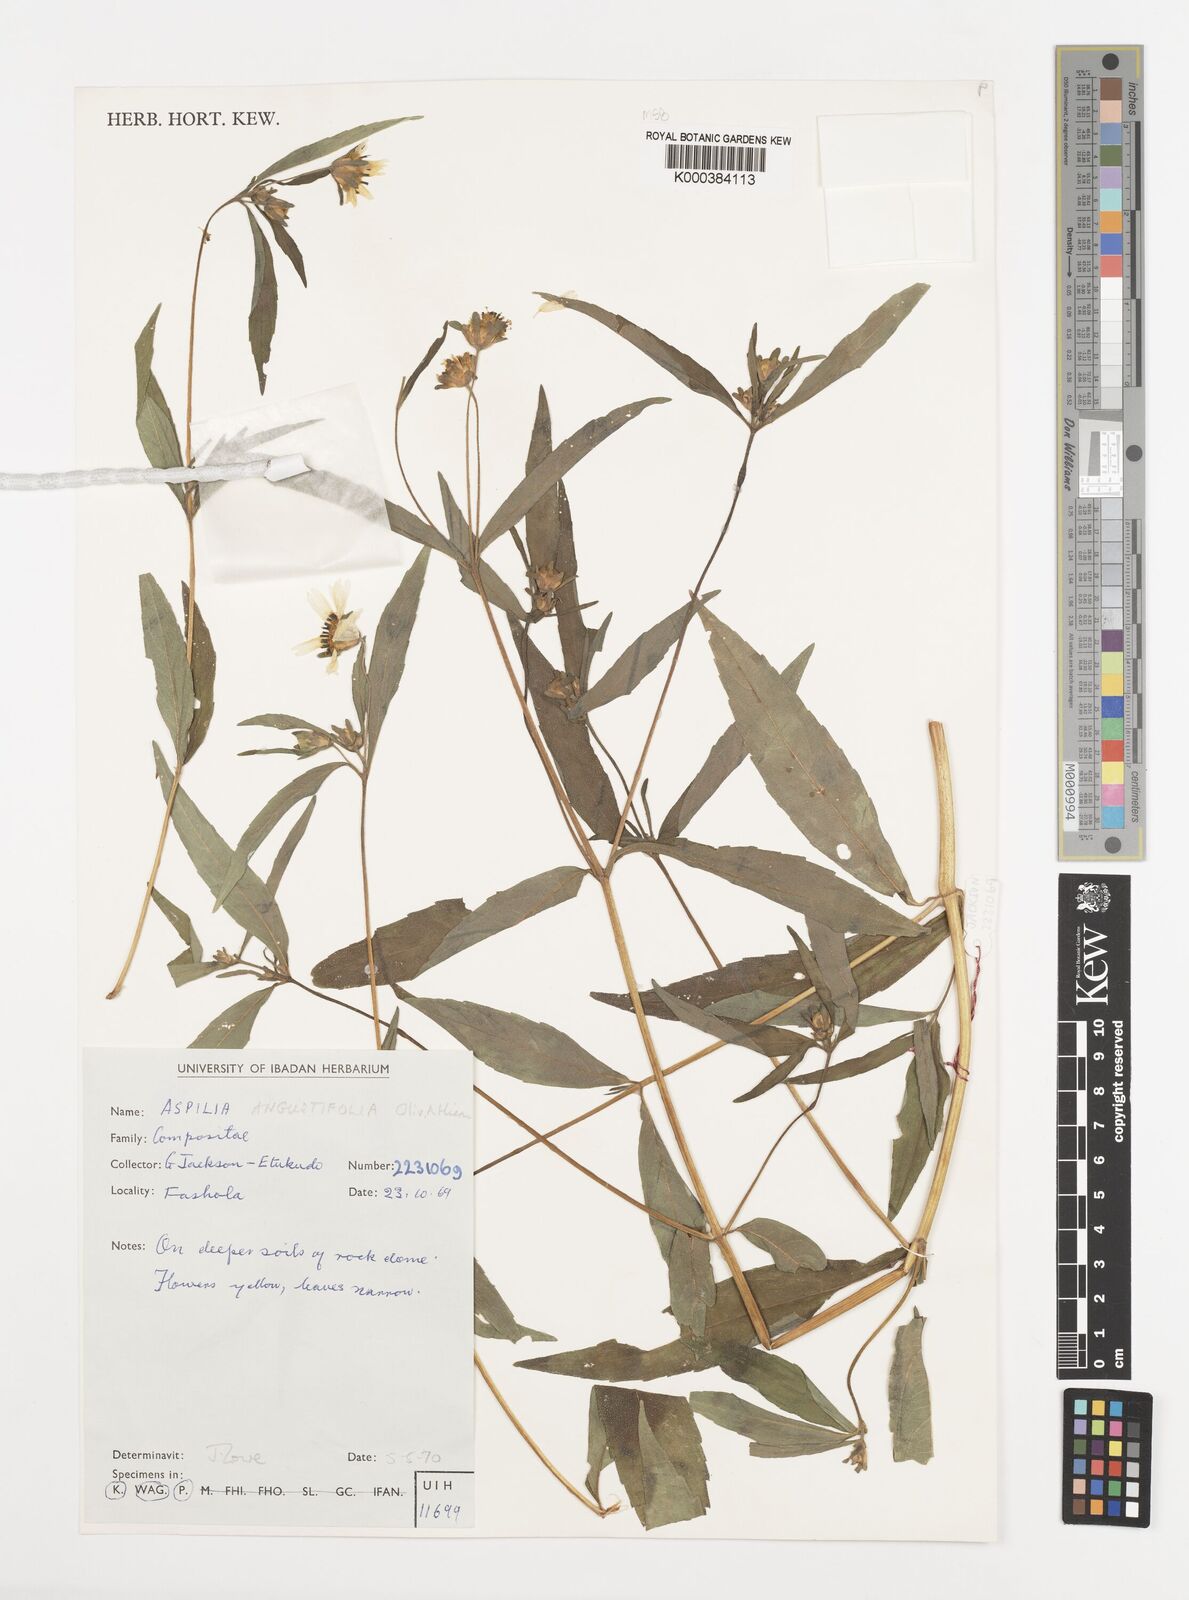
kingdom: Plantae
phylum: Tracheophyta
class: Magnoliopsida
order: Asterales
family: Asteraceae
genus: Aspilia
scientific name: Aspilia angustifolia
